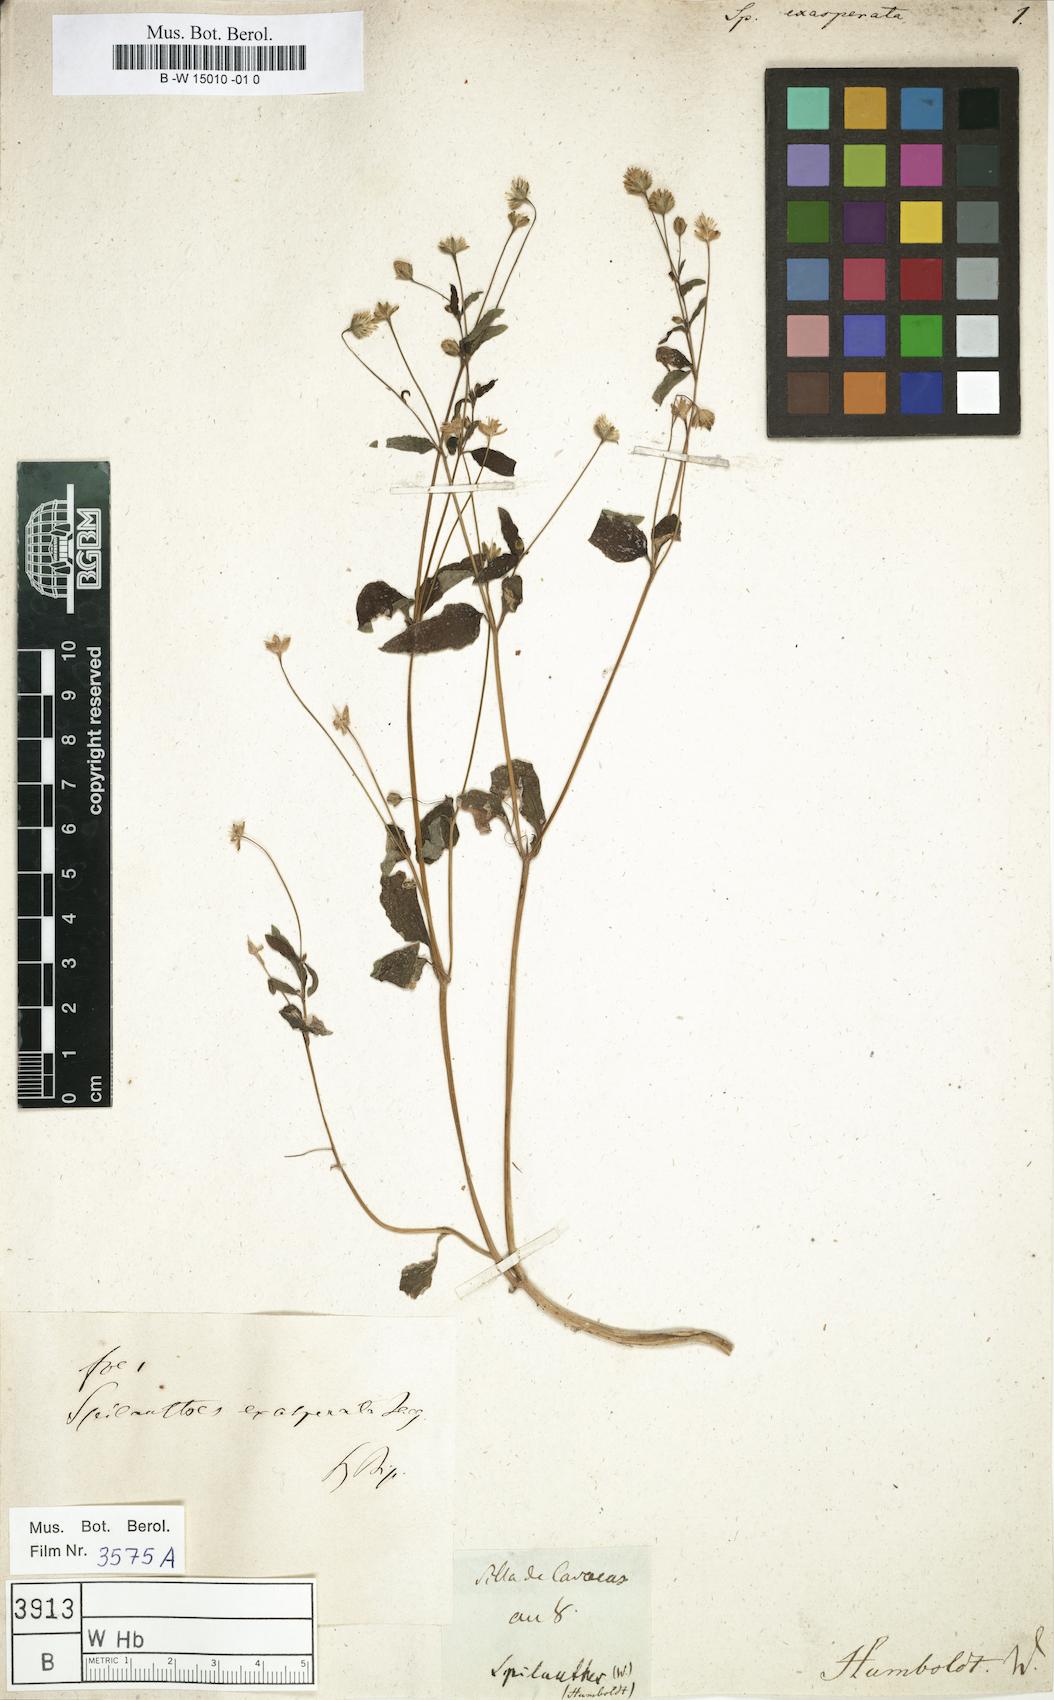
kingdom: Plantae
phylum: Tracheophyta
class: Magnoliopsida
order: Asterales
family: Asteraceae
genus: Acmella
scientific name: Acmella alba
